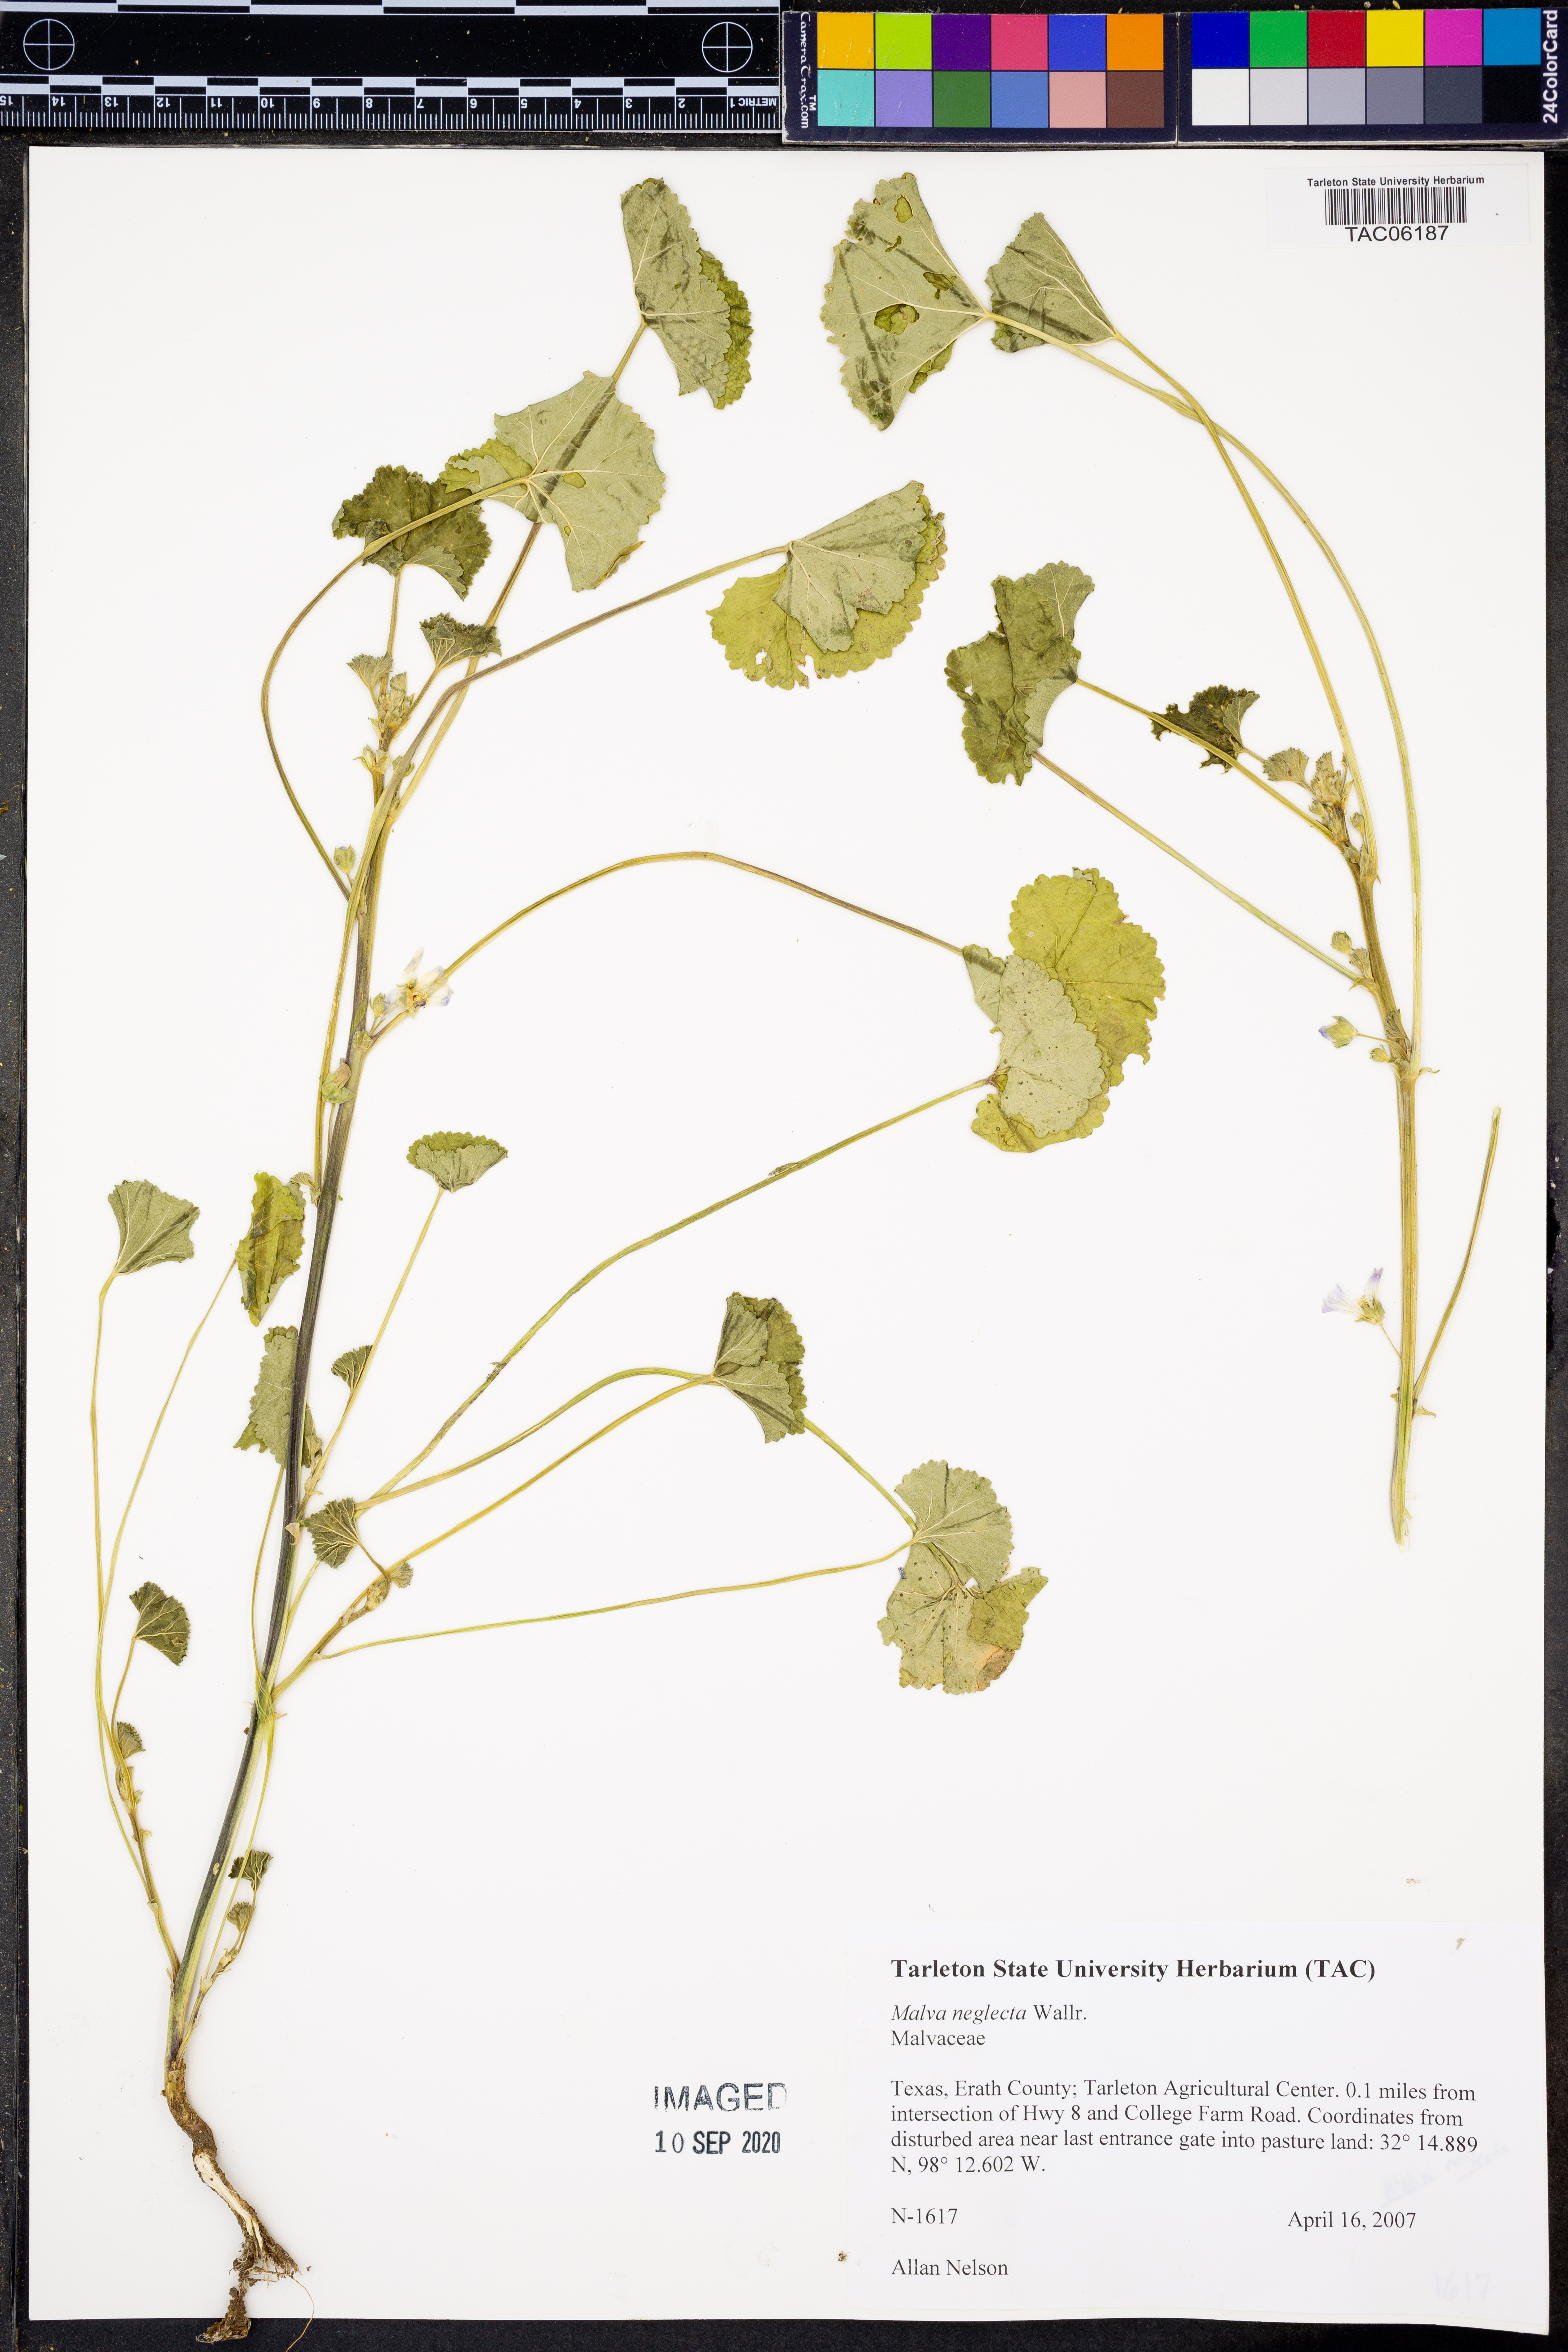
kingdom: Plantae
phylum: Tracheophyta
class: Magnoliopsida
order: Malvales
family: Malvaceae
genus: Malva
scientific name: Malva neglecta
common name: Common mallow
